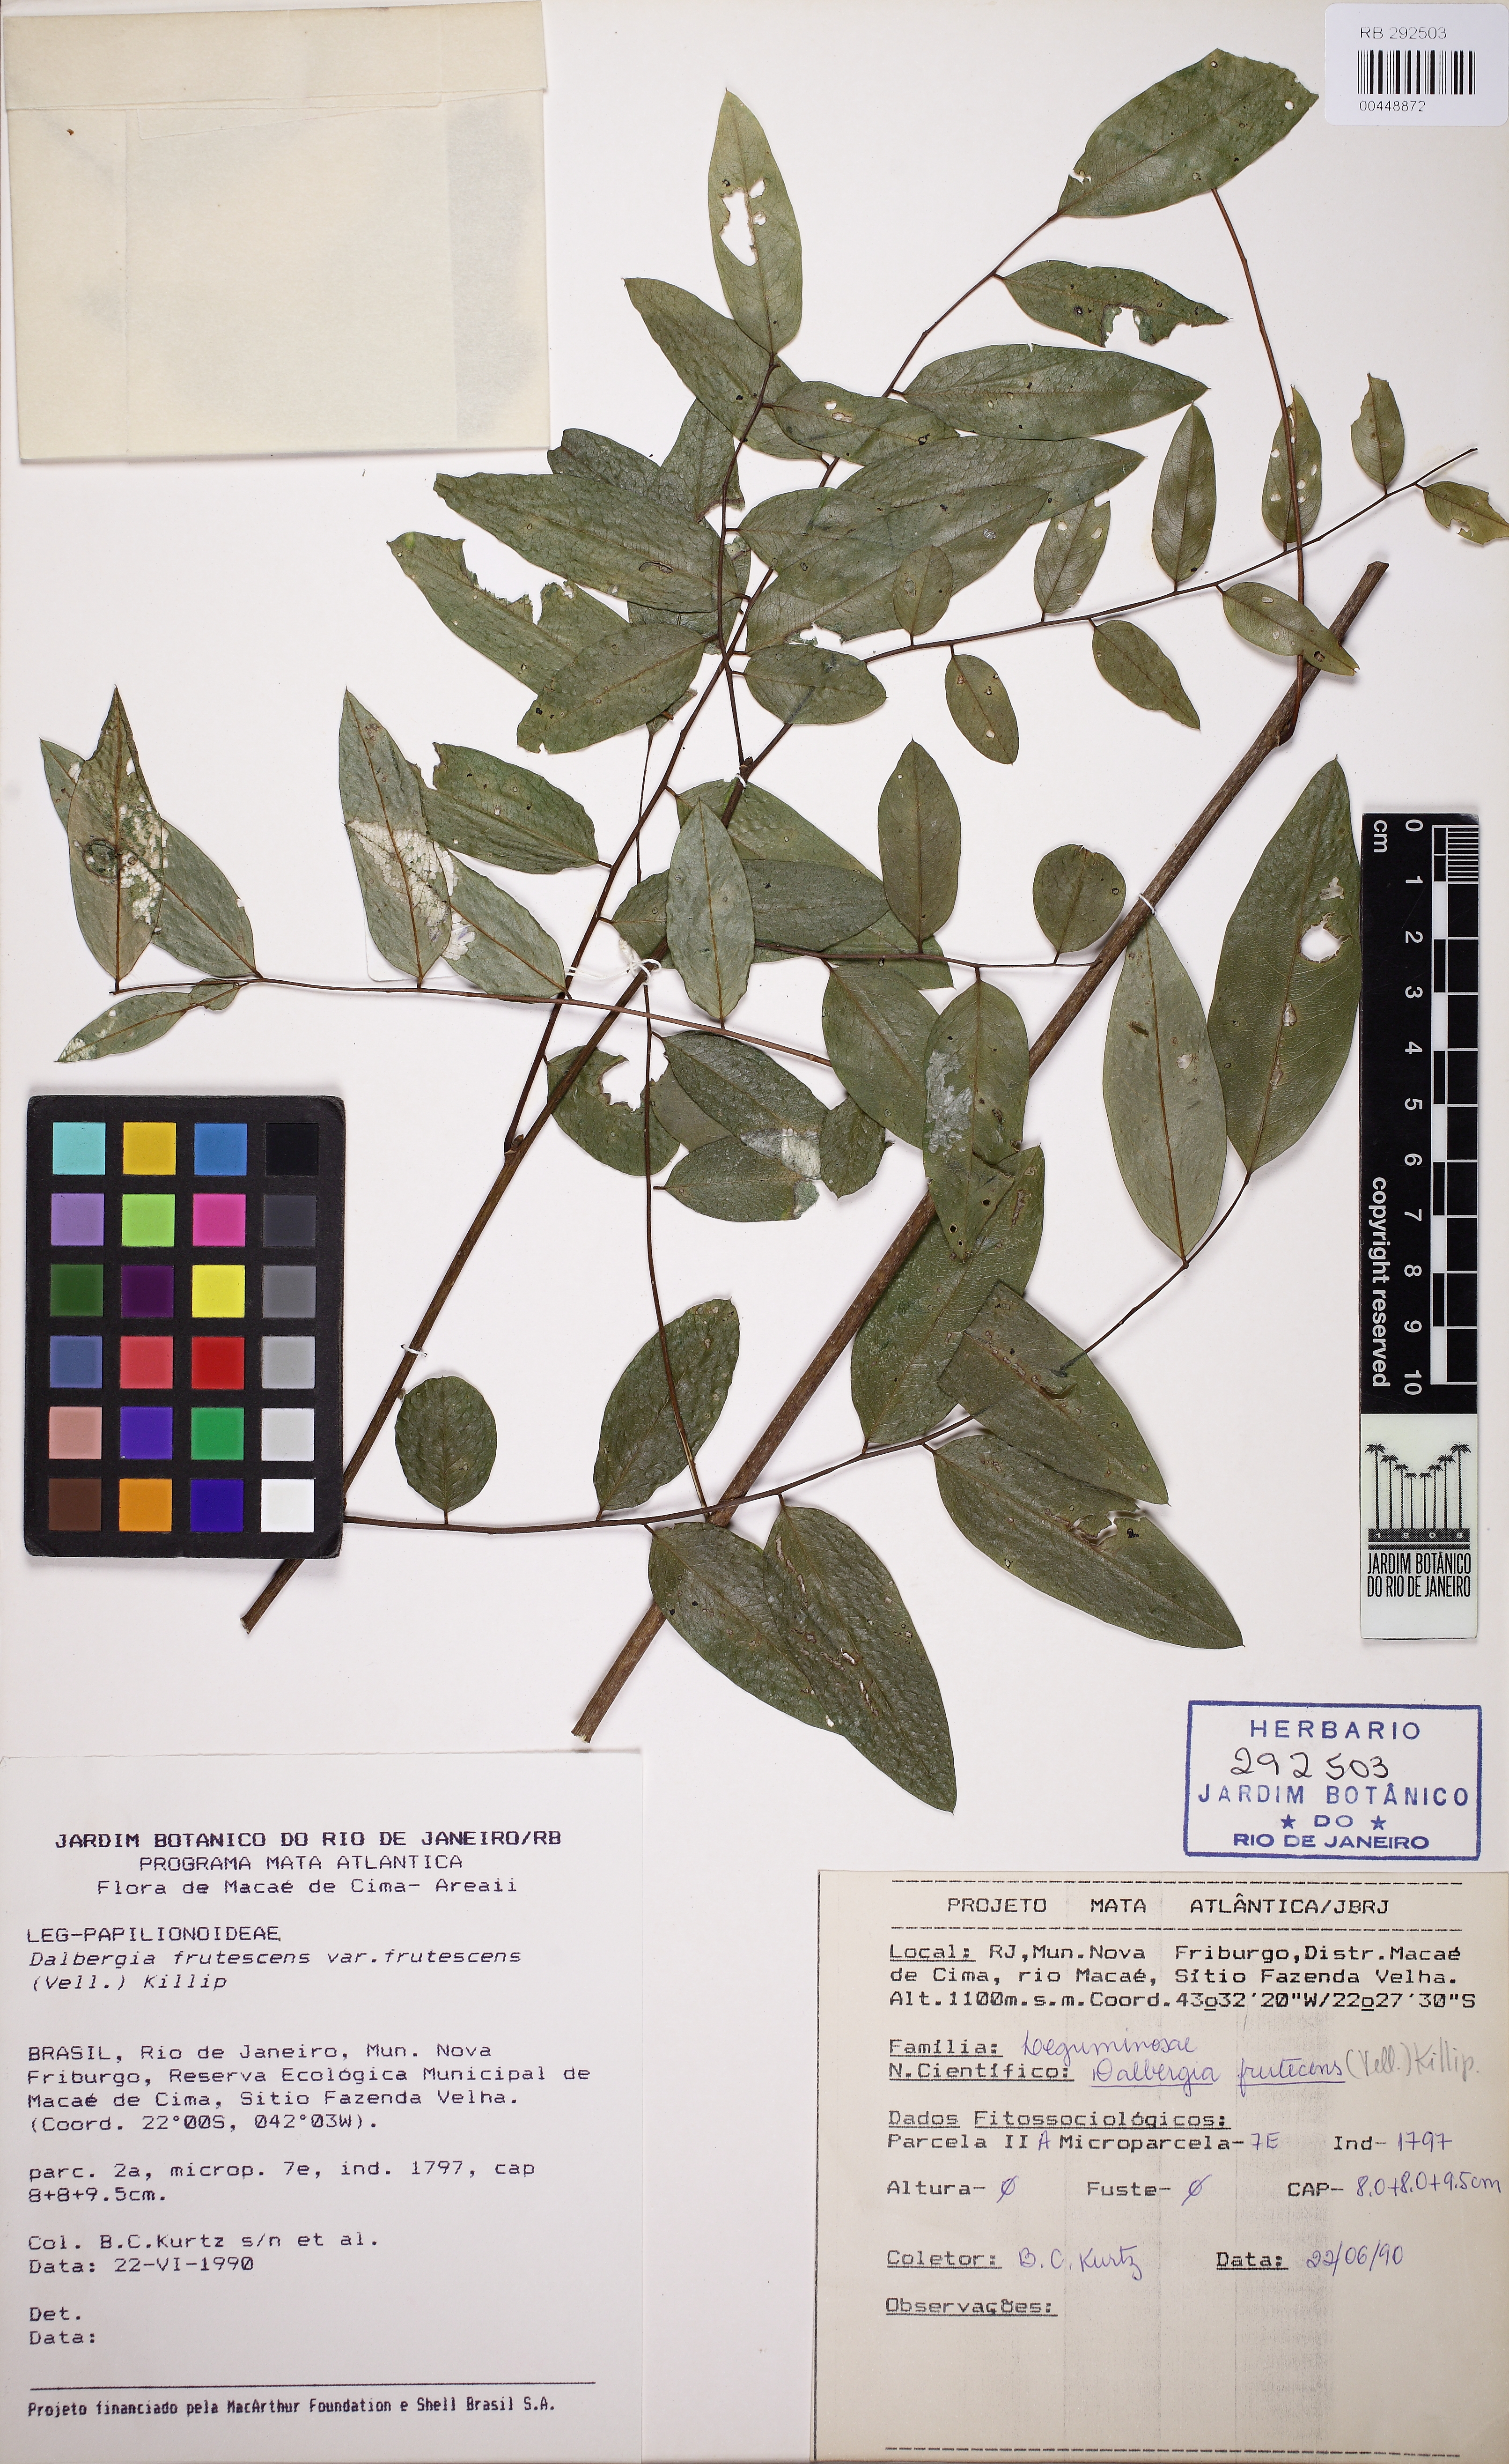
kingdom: Plantae
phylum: Tracheophyta
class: Magnoliopsida
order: Fabales
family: Fabaceae
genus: Dalbergia
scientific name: Dalbergia frutescens
